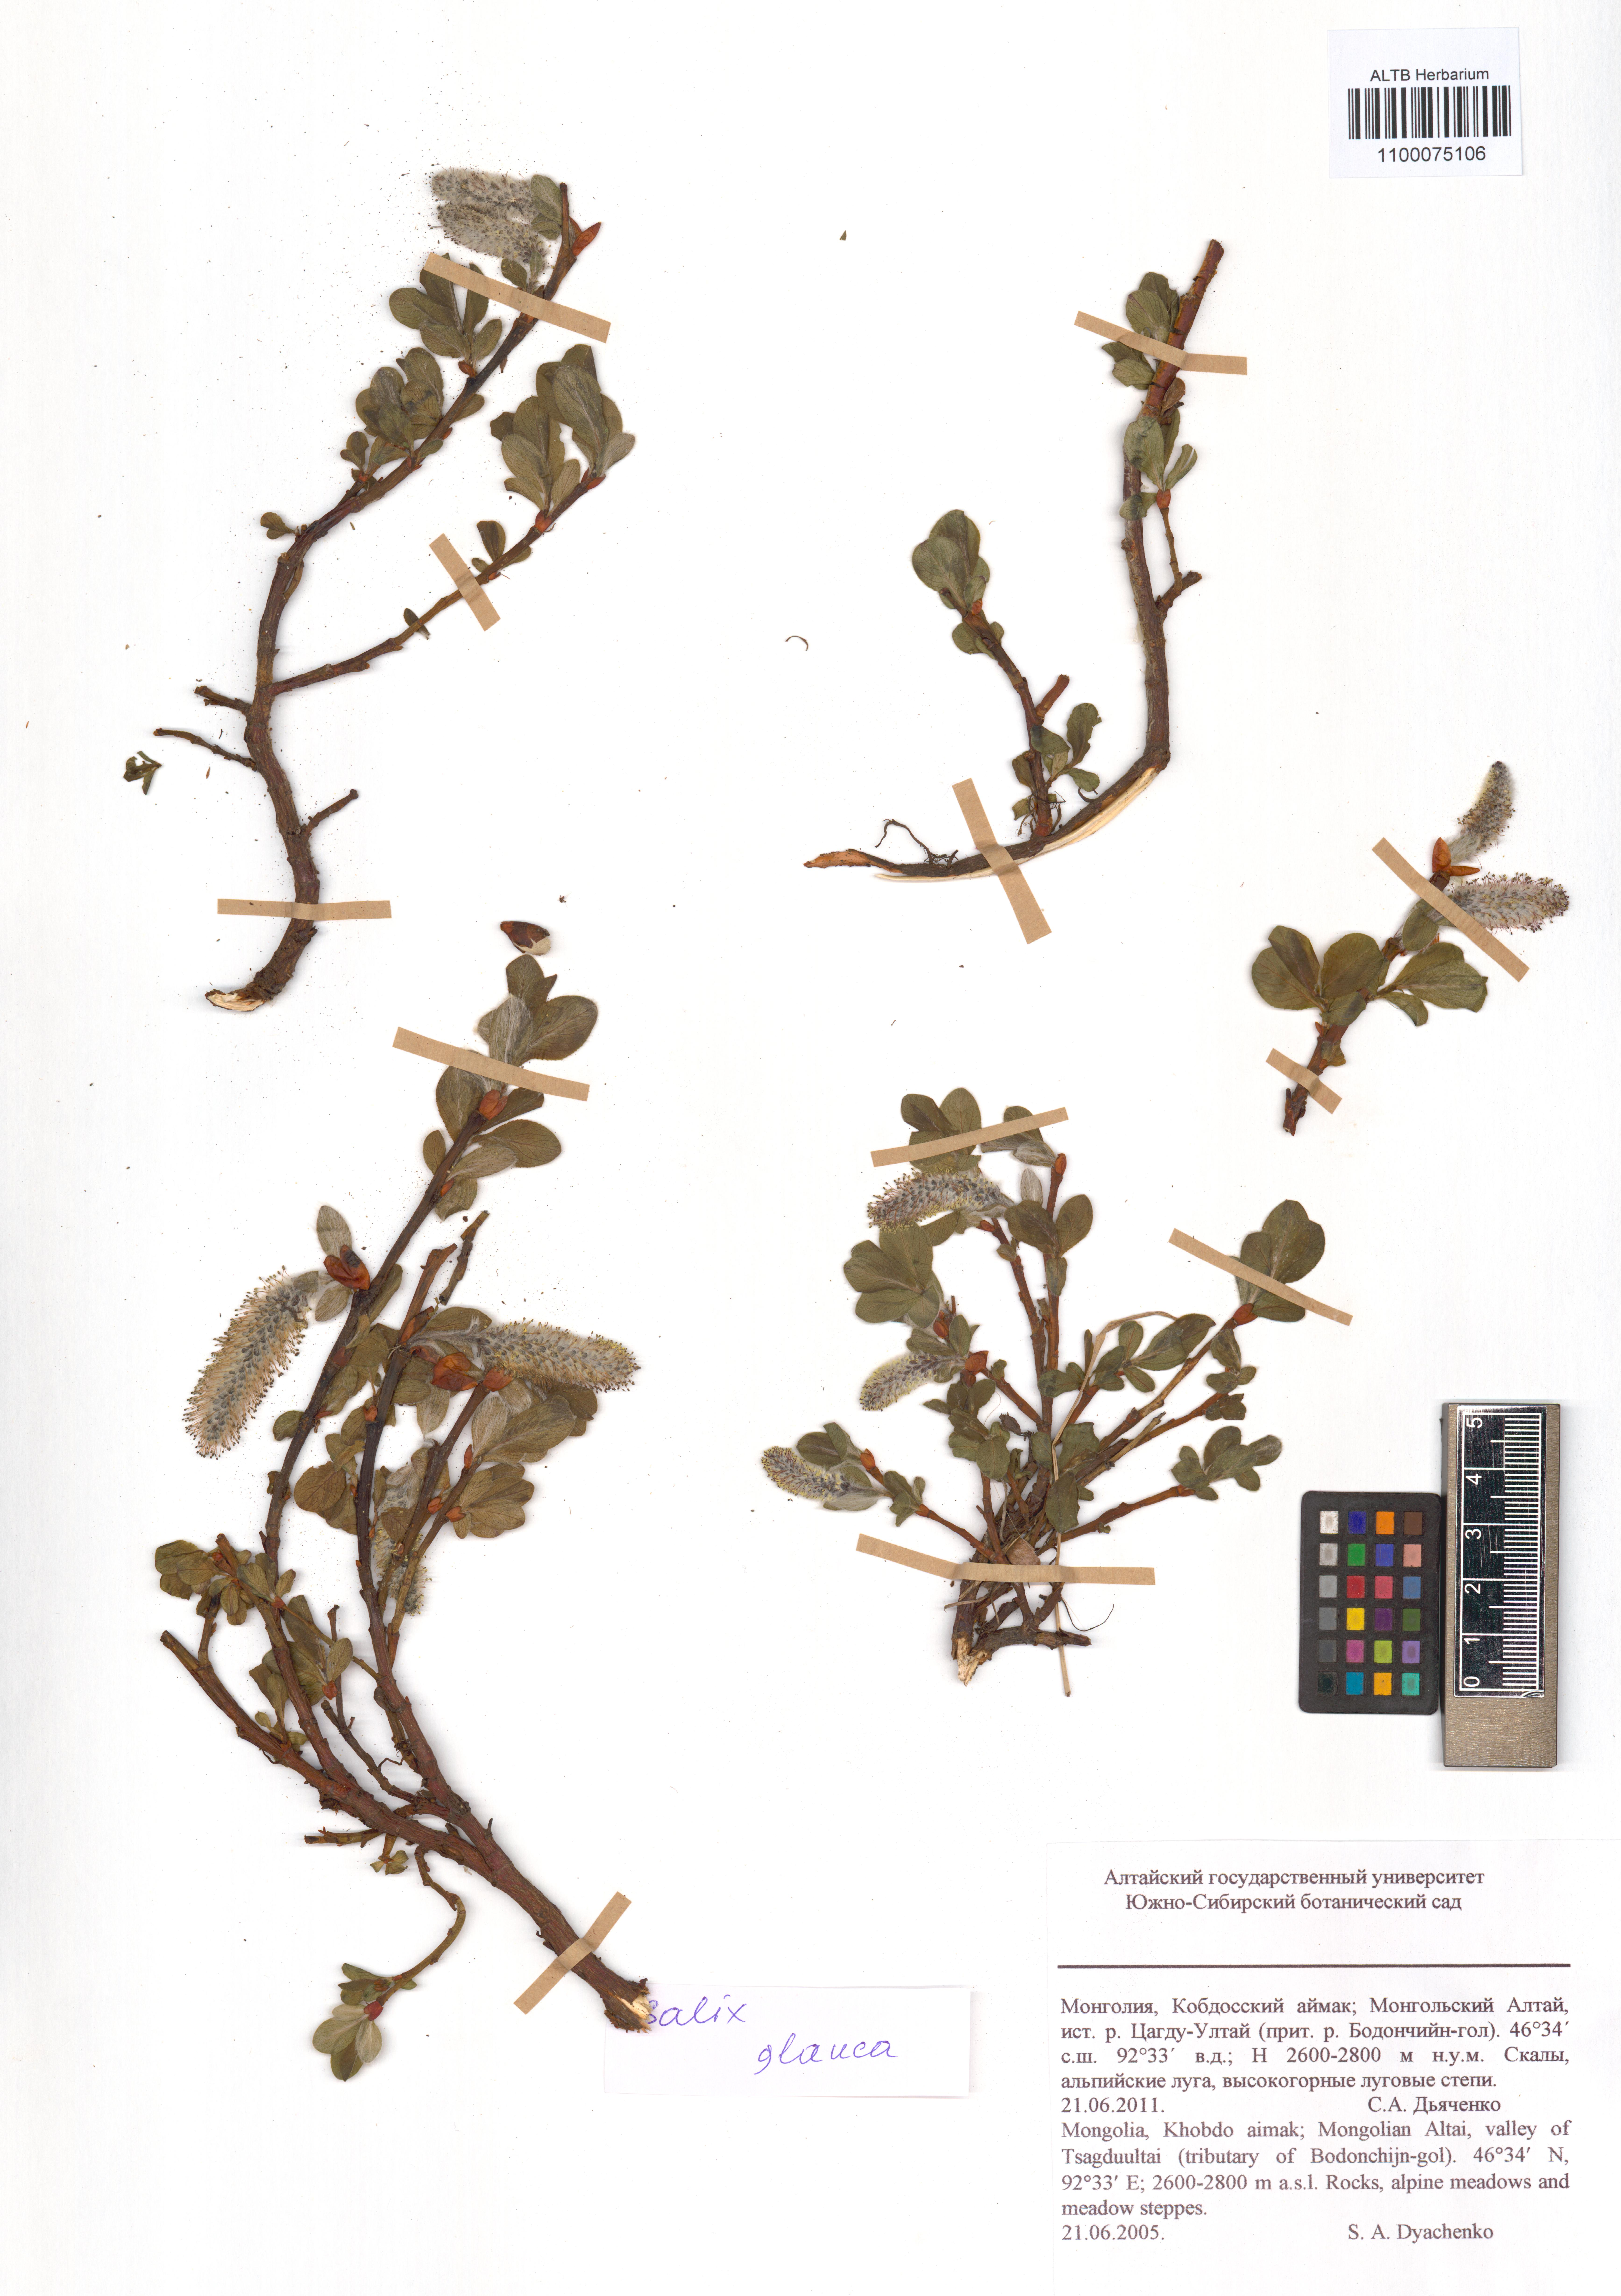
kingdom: Plantae
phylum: Tracheophyta
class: Magnoliopsida
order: Malpighiales
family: Salicaceae
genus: Salix
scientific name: Salix glauca
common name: Glaucous willow
